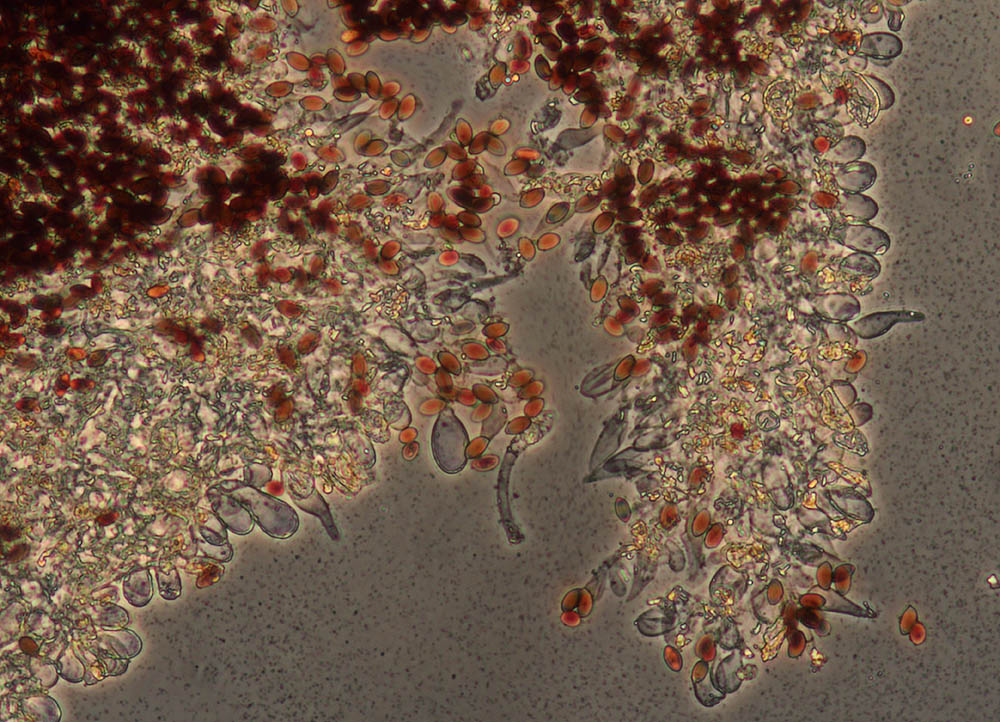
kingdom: Fungi
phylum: Basidiomycota
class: Agaricomycetes
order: Agaricales
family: Psathyrellaceae
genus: Psathyrella
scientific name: Psathyrella orbicularis
